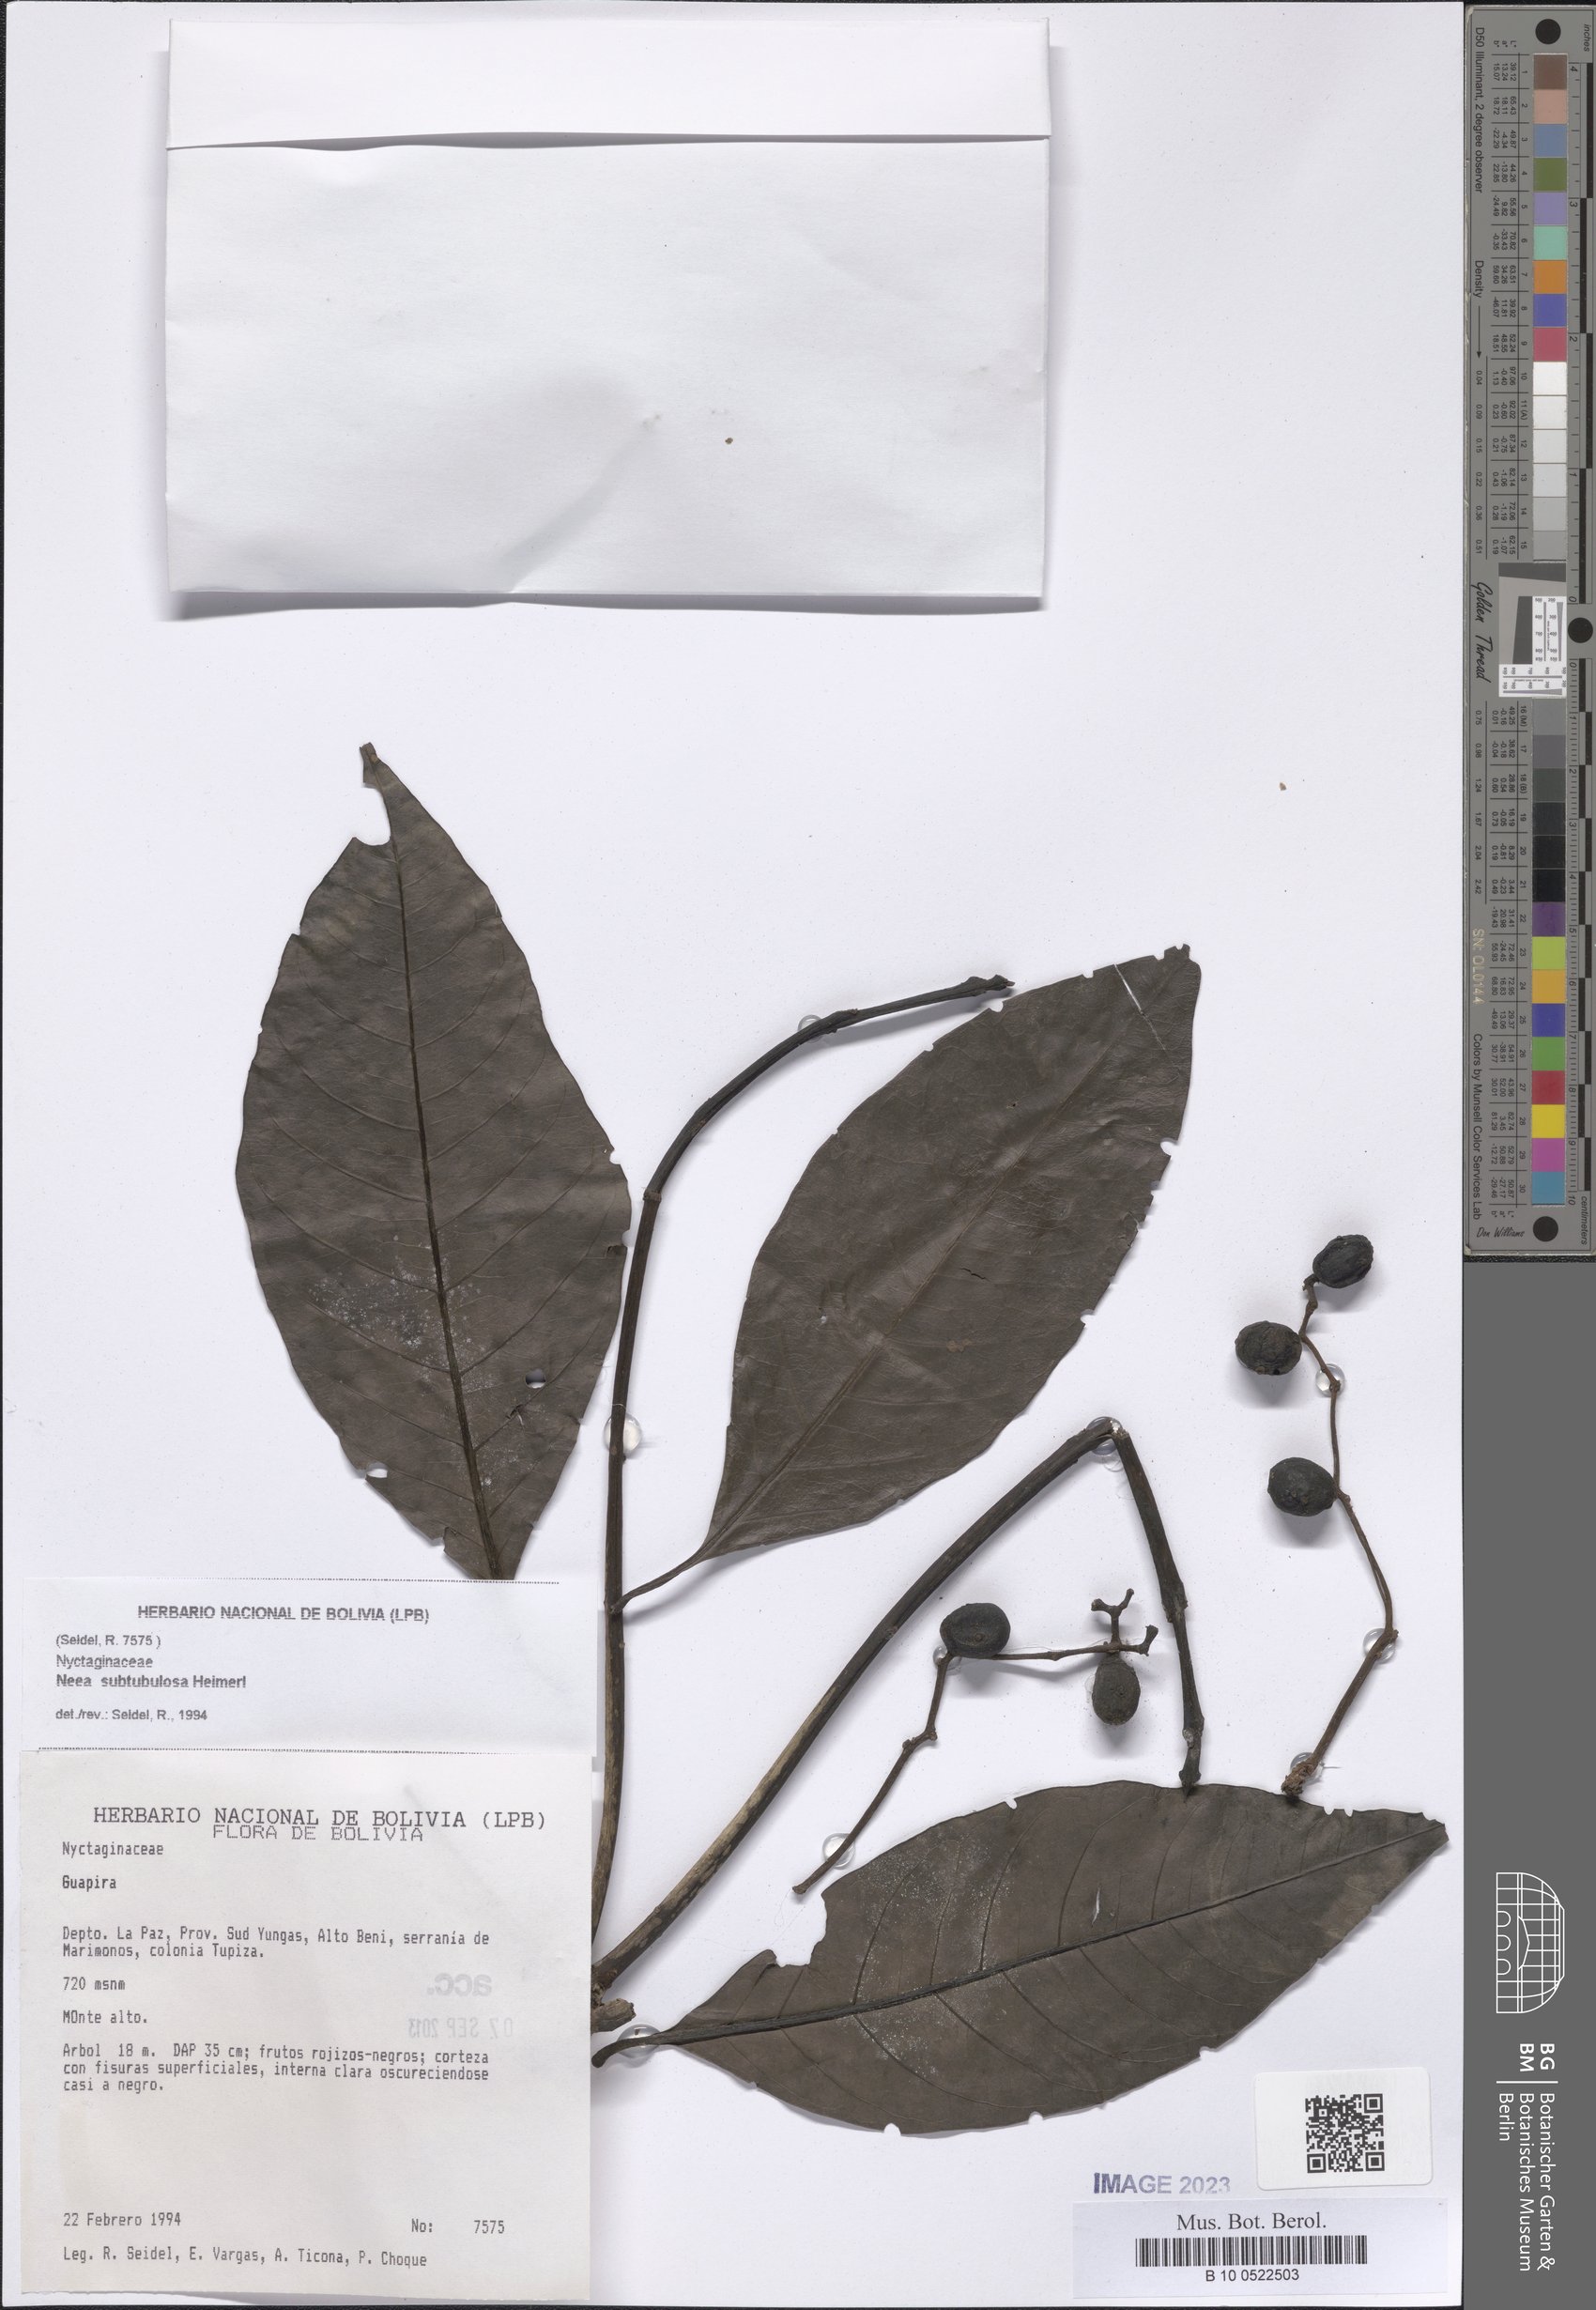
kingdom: Plantae
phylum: Tracheophyta
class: Magnoliopsida
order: Caryophyllales
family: Nyctaginaceae
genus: Neea
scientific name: Neea
